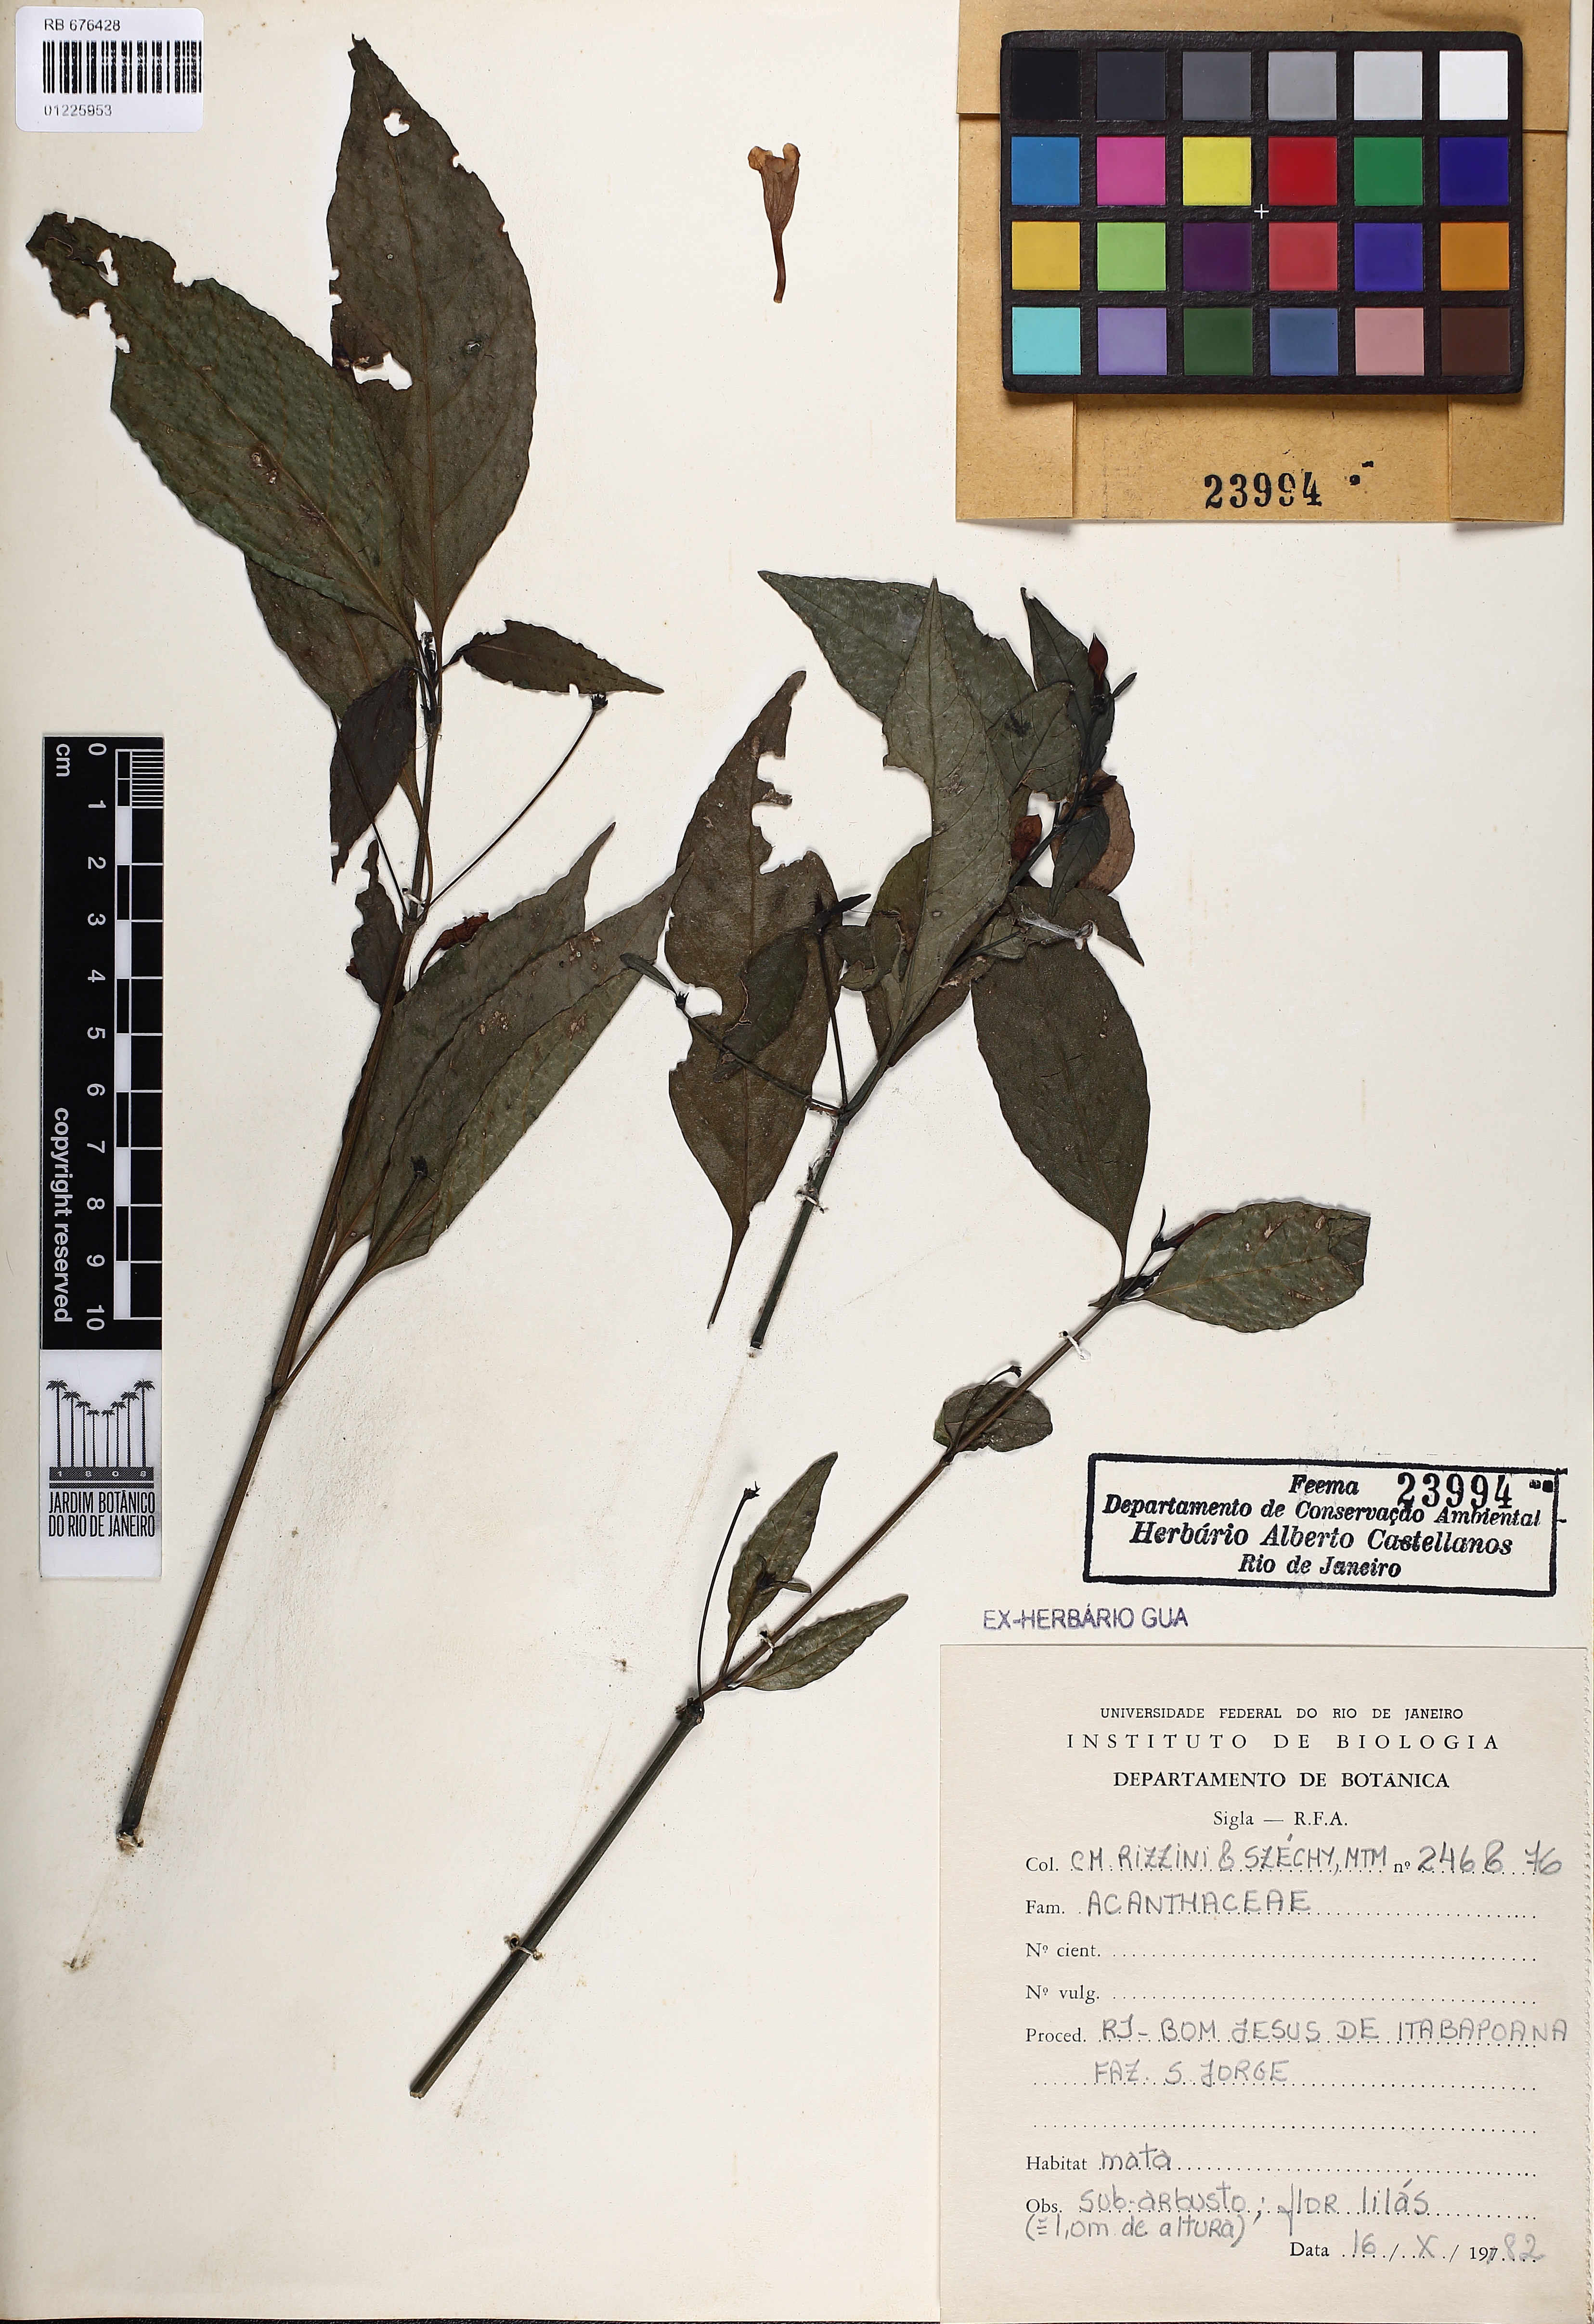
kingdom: Plantae
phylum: Tracheophyta
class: Magnoliopsida
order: Lamiales
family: Acanthaceae
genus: Ruellia
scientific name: Ruellia
